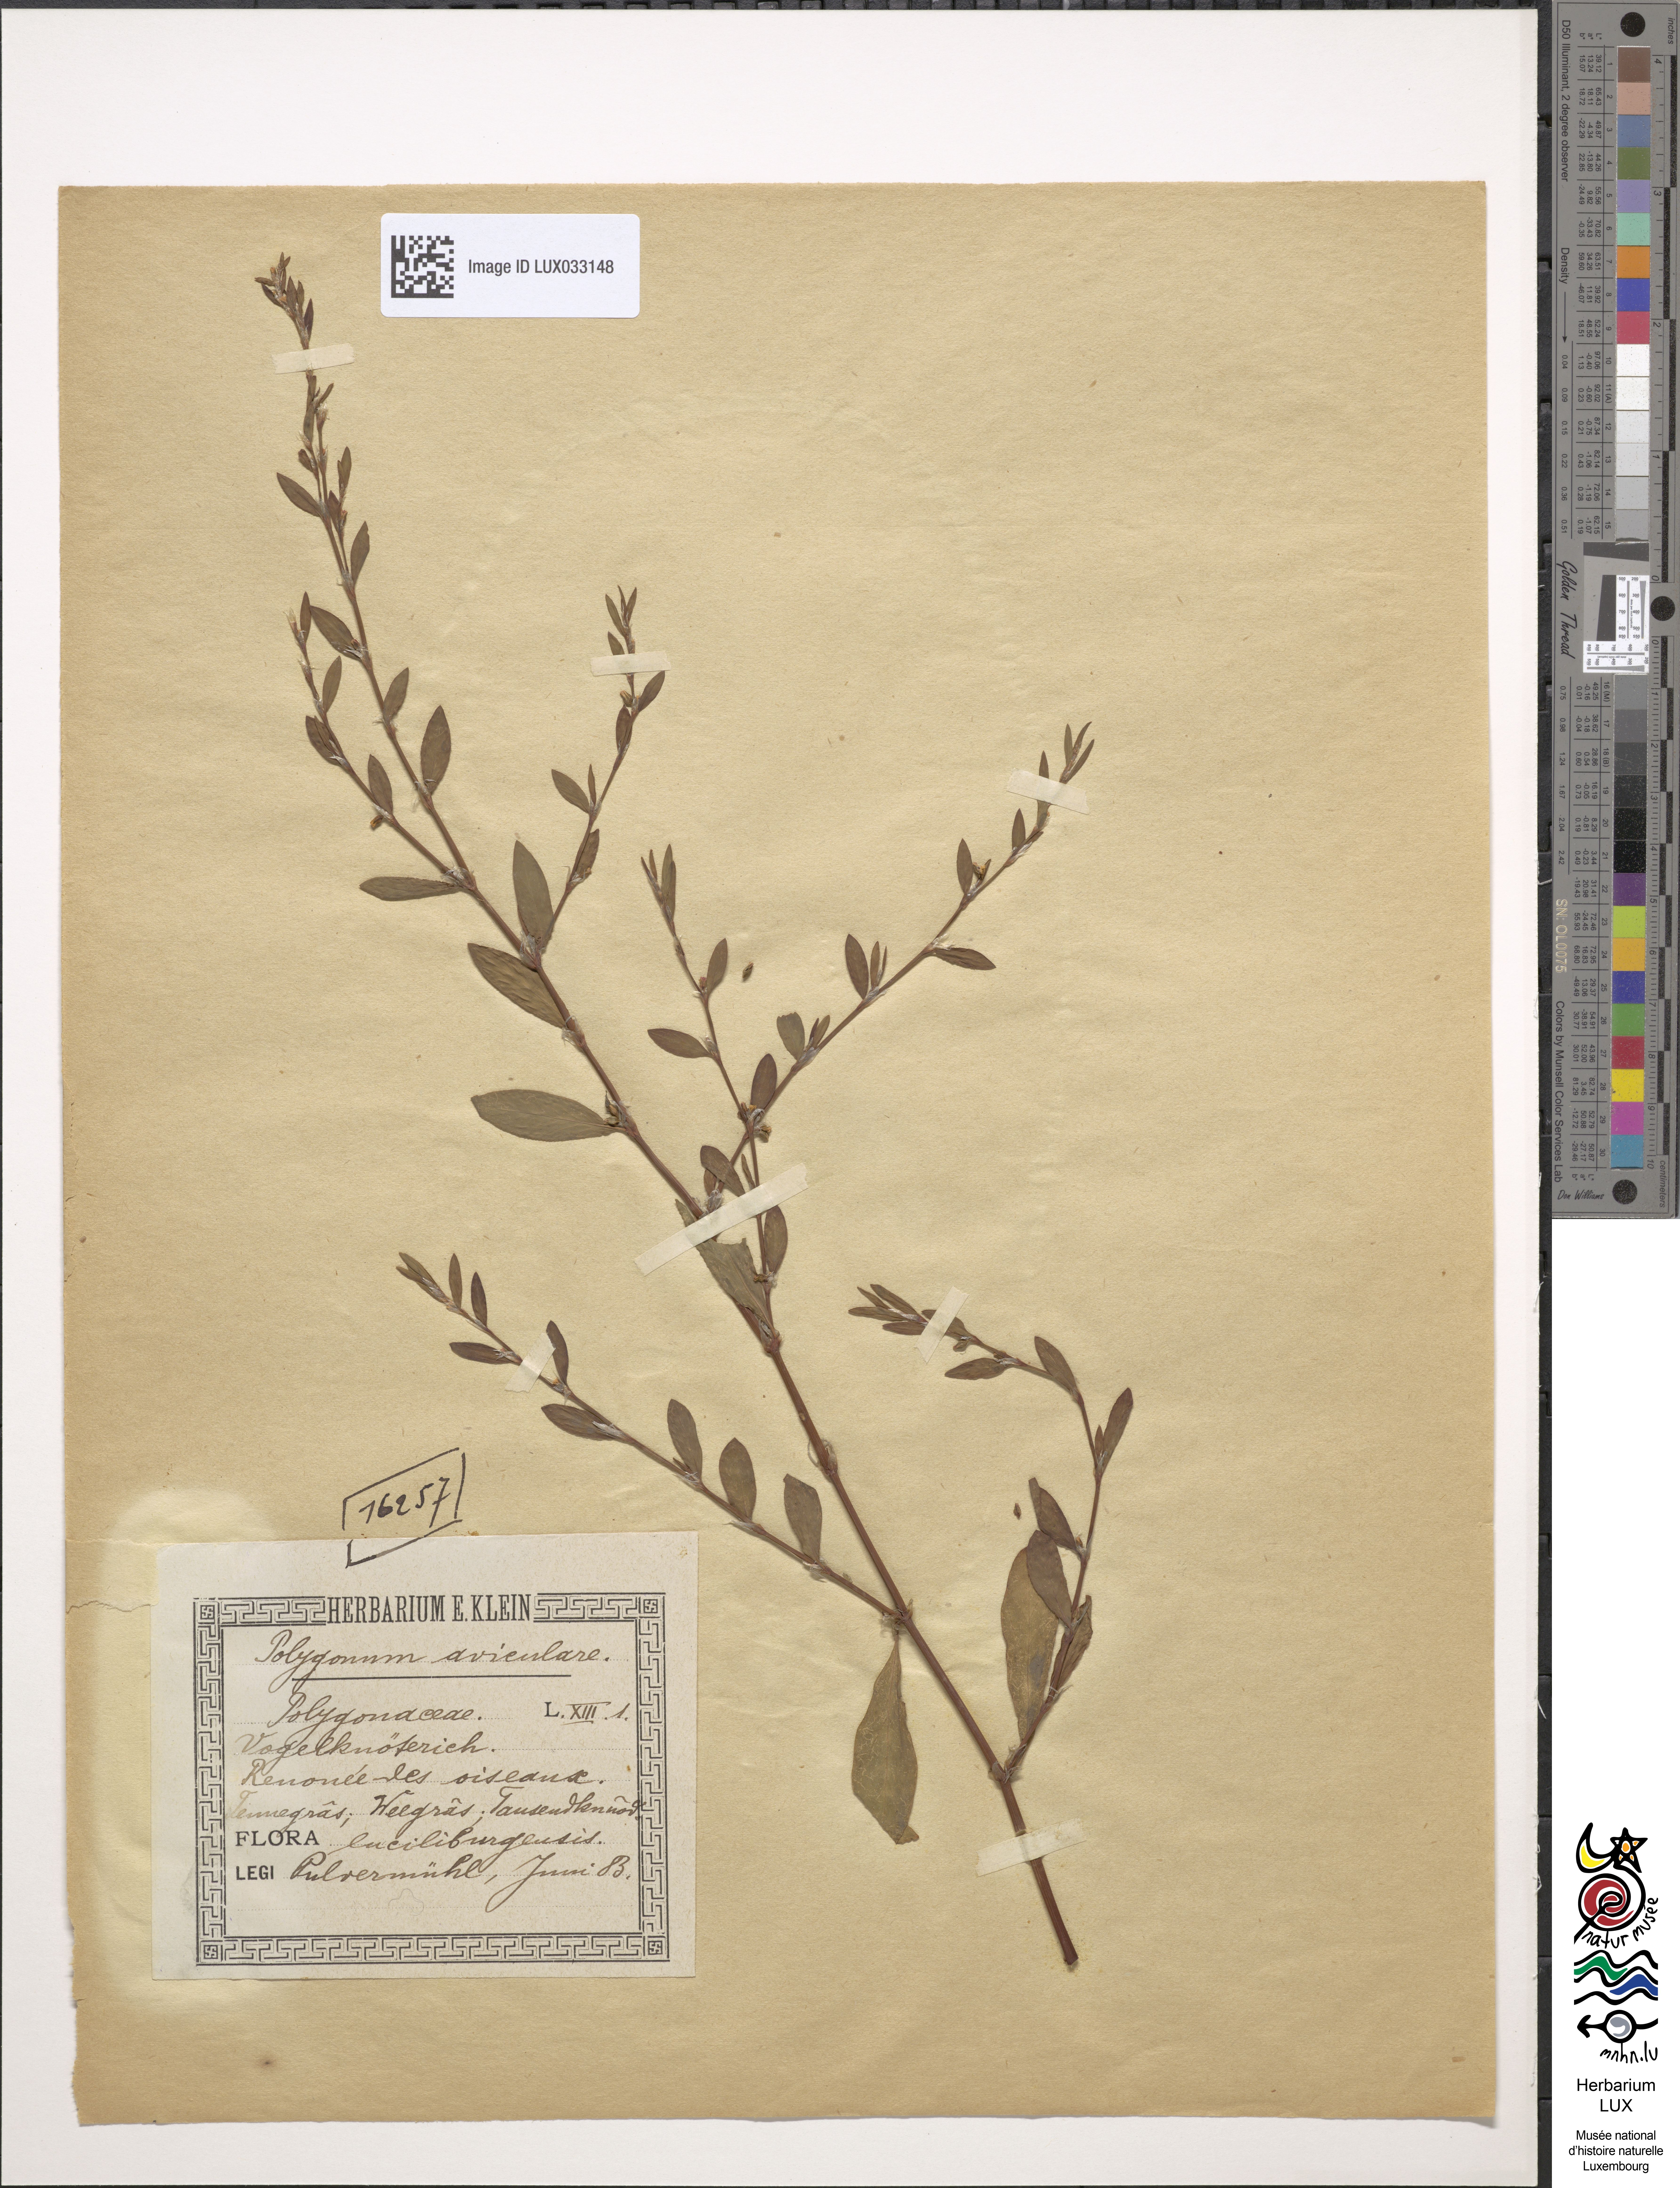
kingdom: Plantae
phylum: Tracheophyta
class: Magnoliopsida
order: Caryophyllales
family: Polygonaceae
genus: Polygonum
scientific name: Polygonum aviculare
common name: Prostrate knotweed
